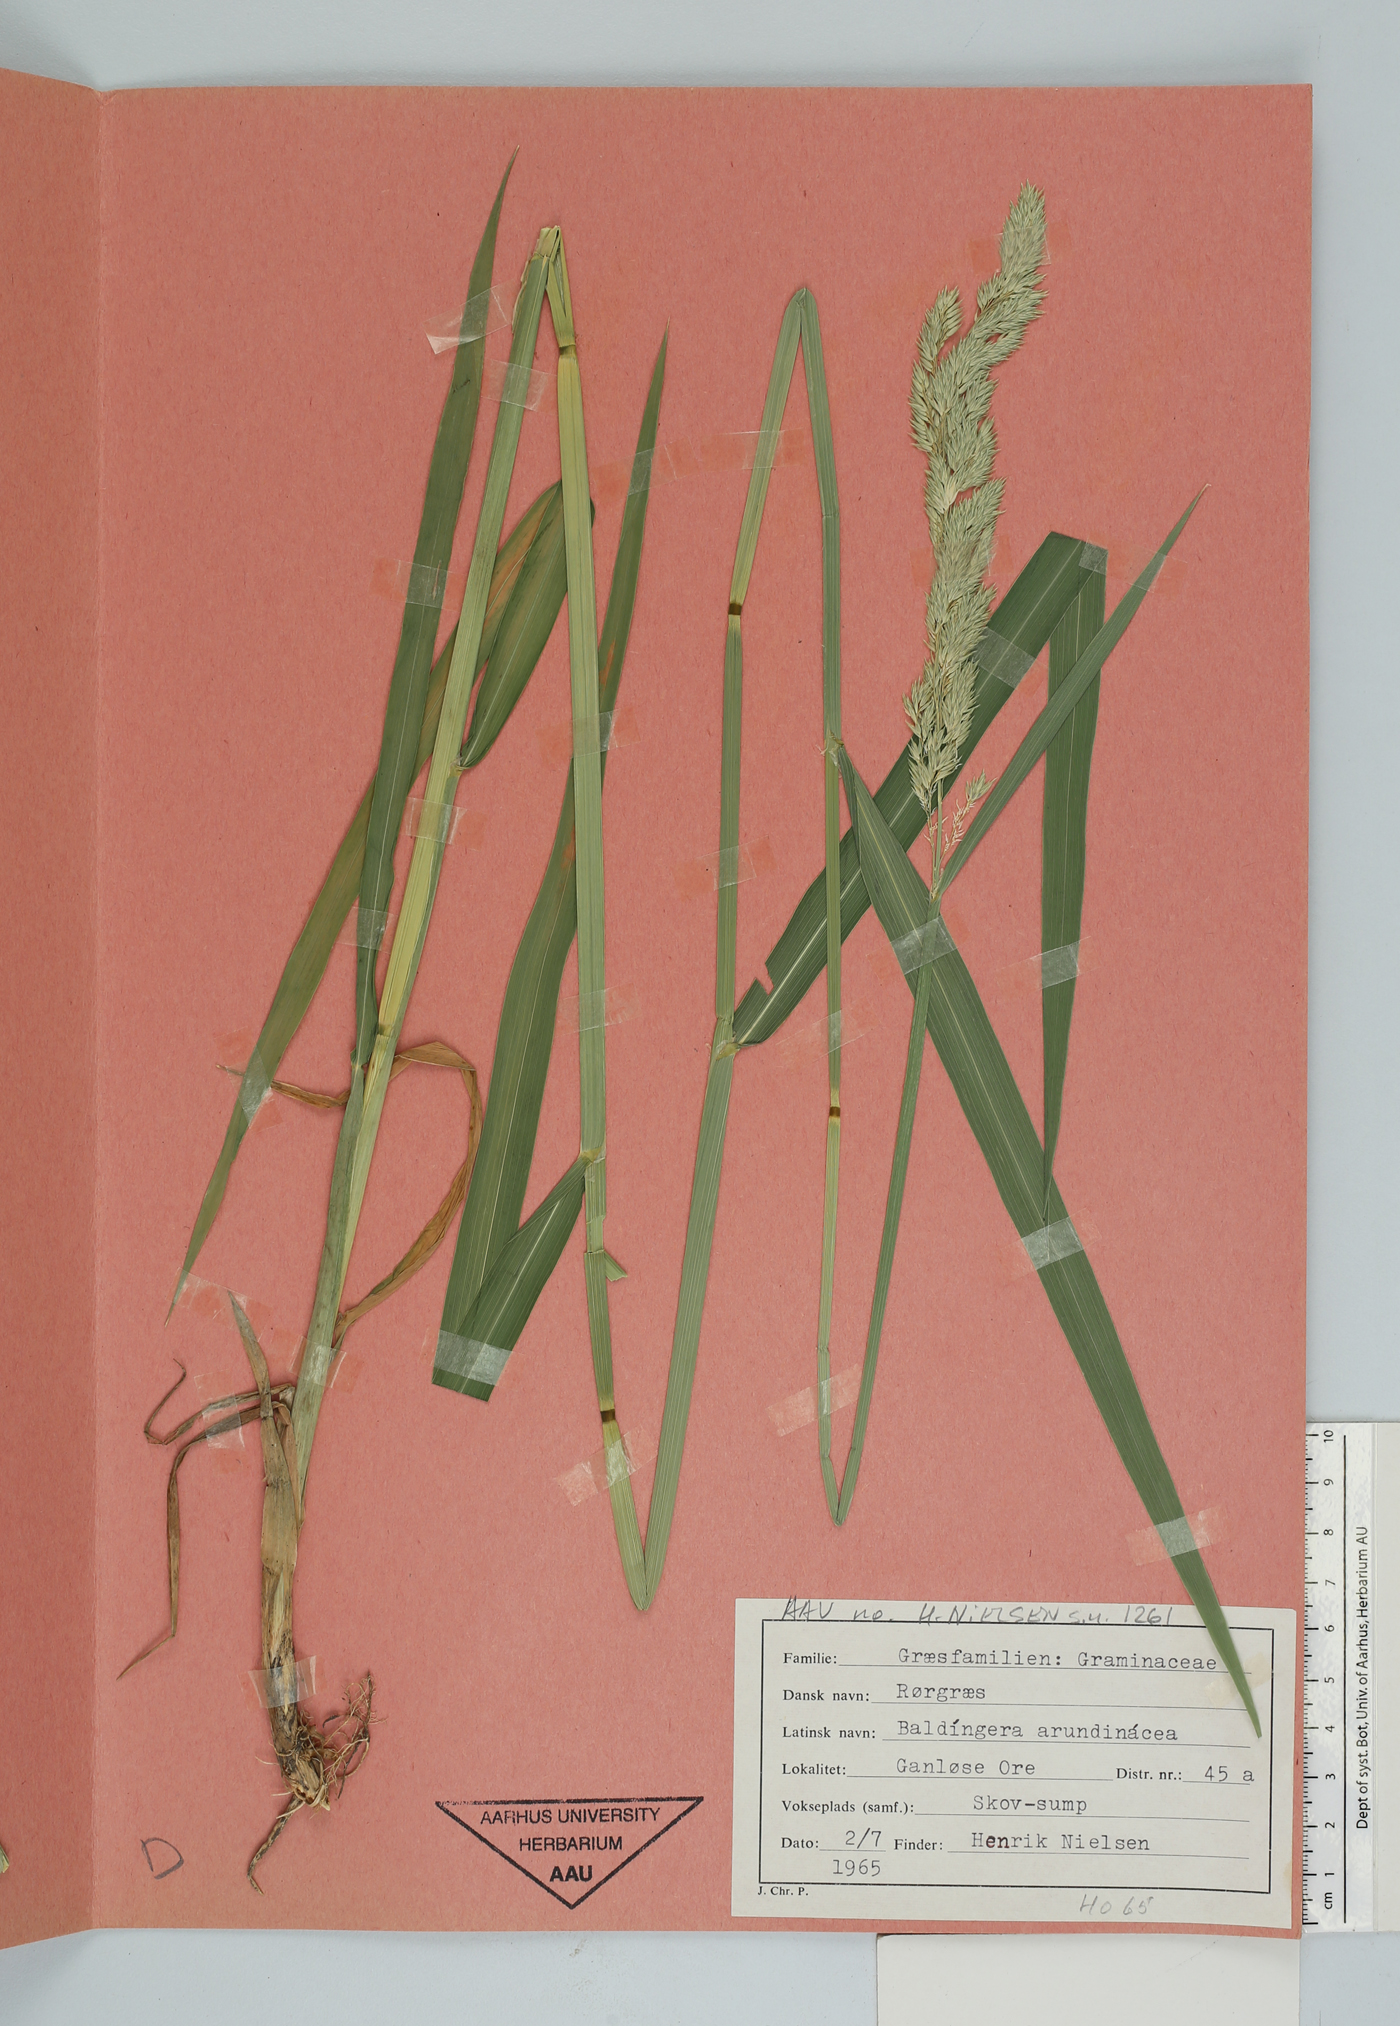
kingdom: Plantae
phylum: Tracheophyta
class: Liliopsida
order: Poales
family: Poaceae
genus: Phalaris
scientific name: Phalaris arundinacea
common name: Reed canary-grass
